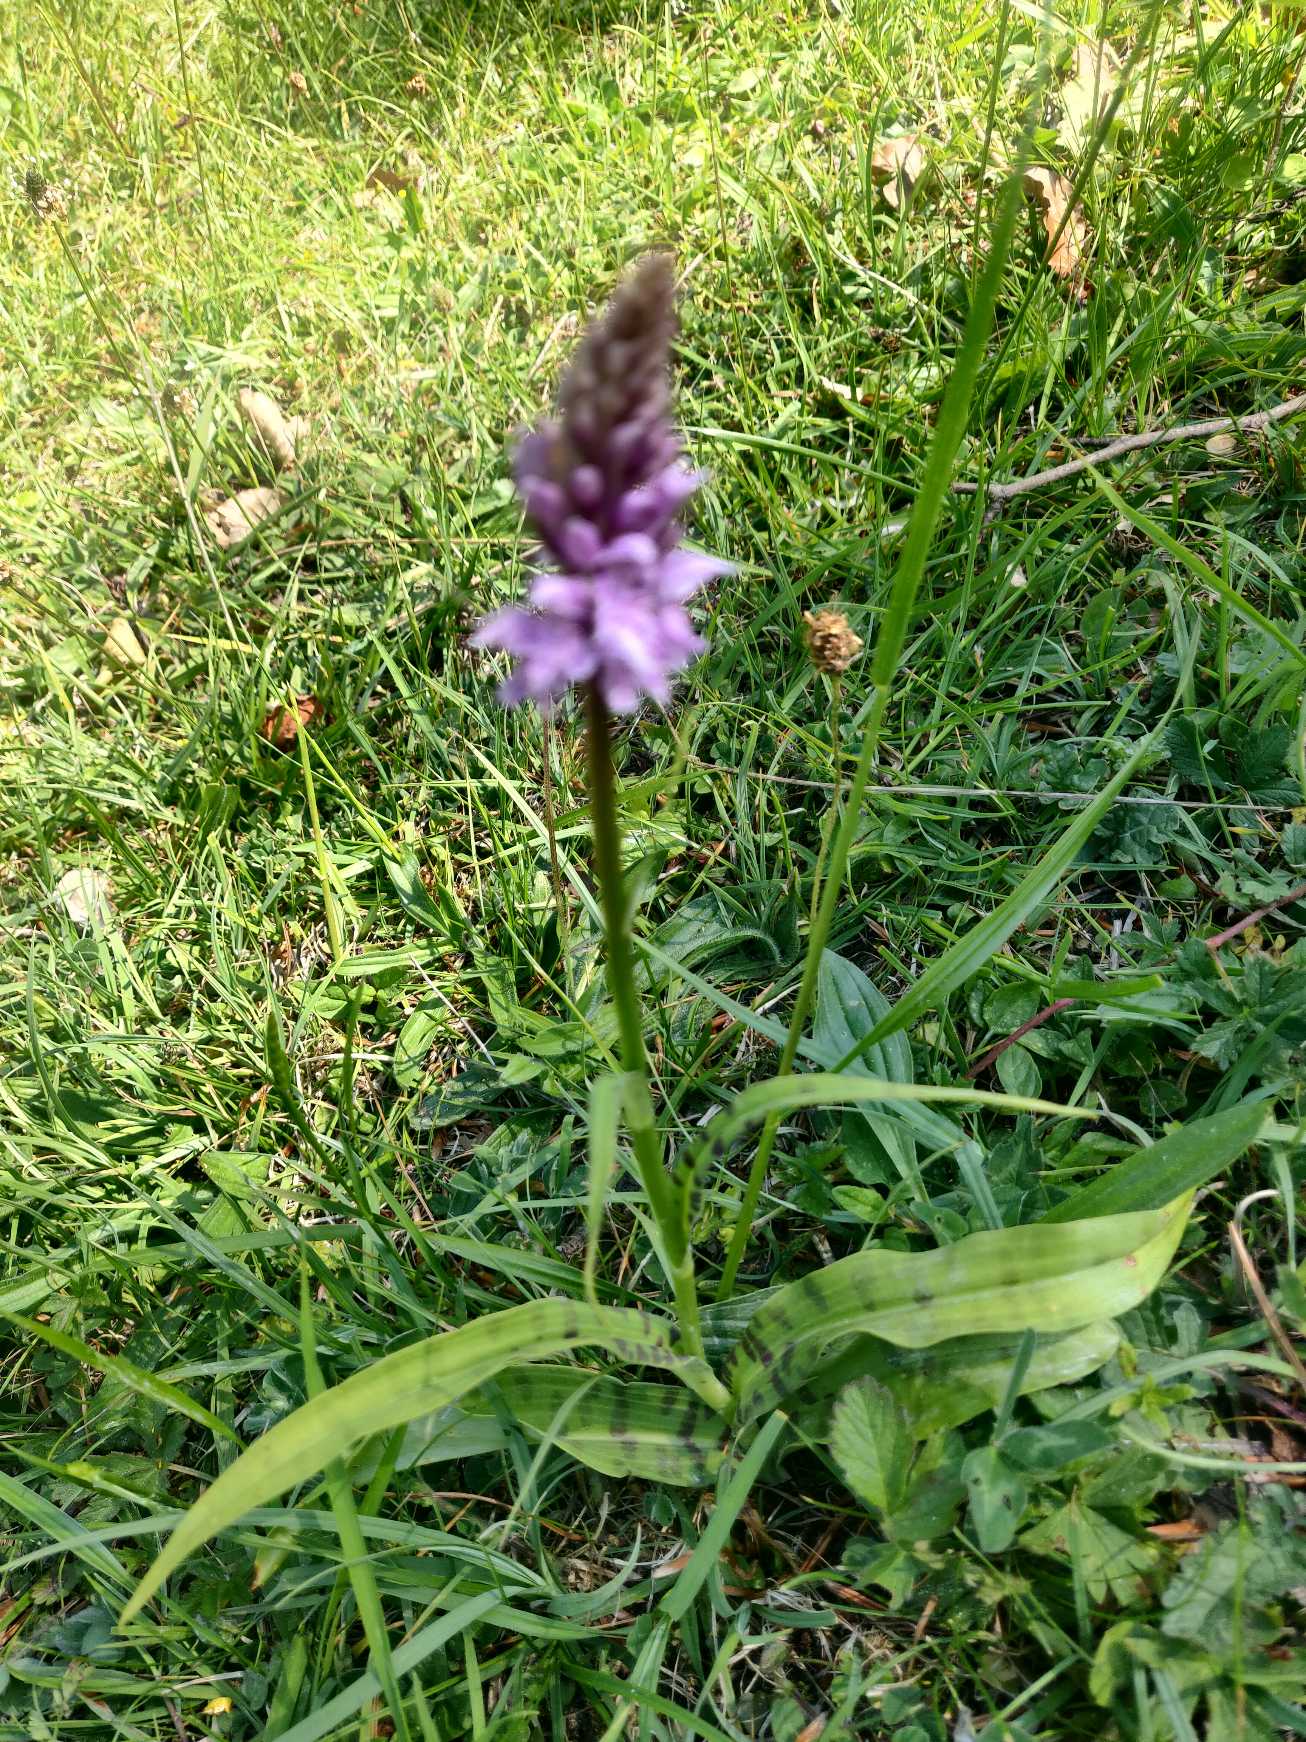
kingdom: Plantae
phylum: Tracheophyta
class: Liliopsida
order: Asparagales
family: Orchidaceae
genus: Dactylorhiza
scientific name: Dactylorhiza maculata
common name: Skov-gøgeurt
